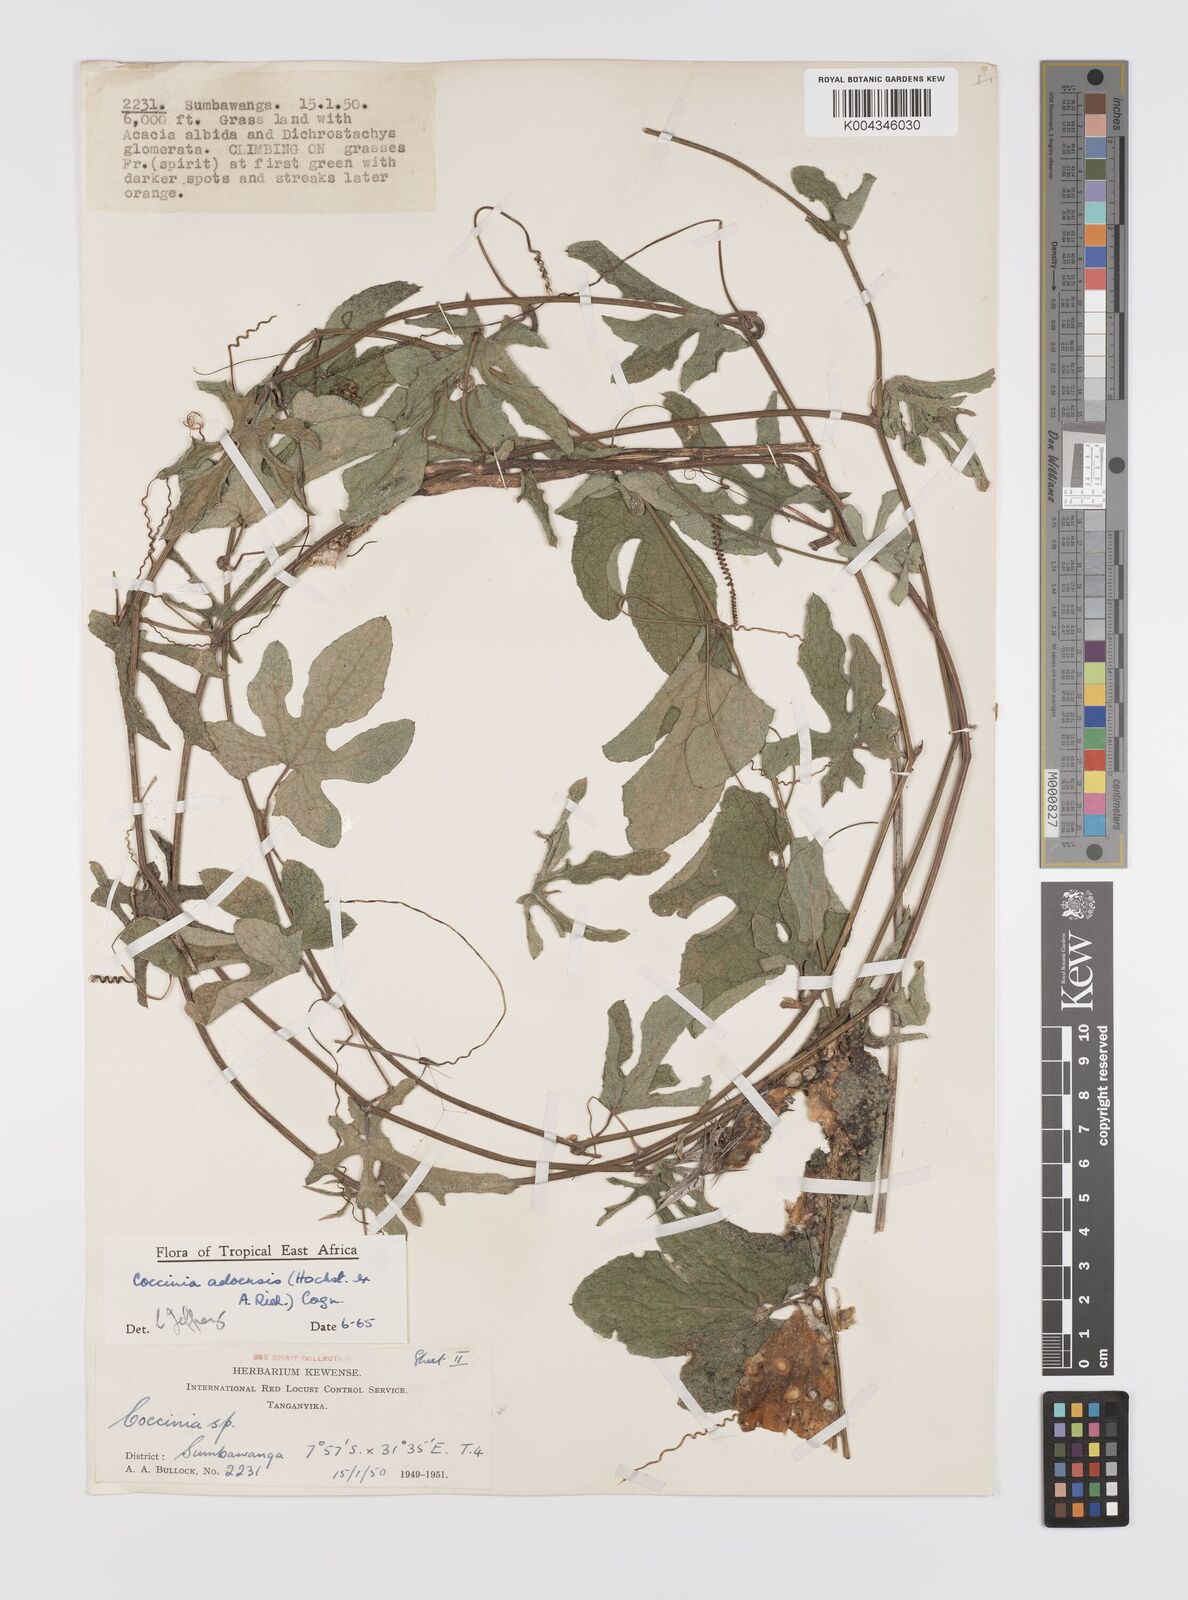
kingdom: Plantae
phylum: Tracheophyta
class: Magnoliopsida
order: Cucurbitales
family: Cucurbitaceae
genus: Coccinia
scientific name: Coccinia adoensis
